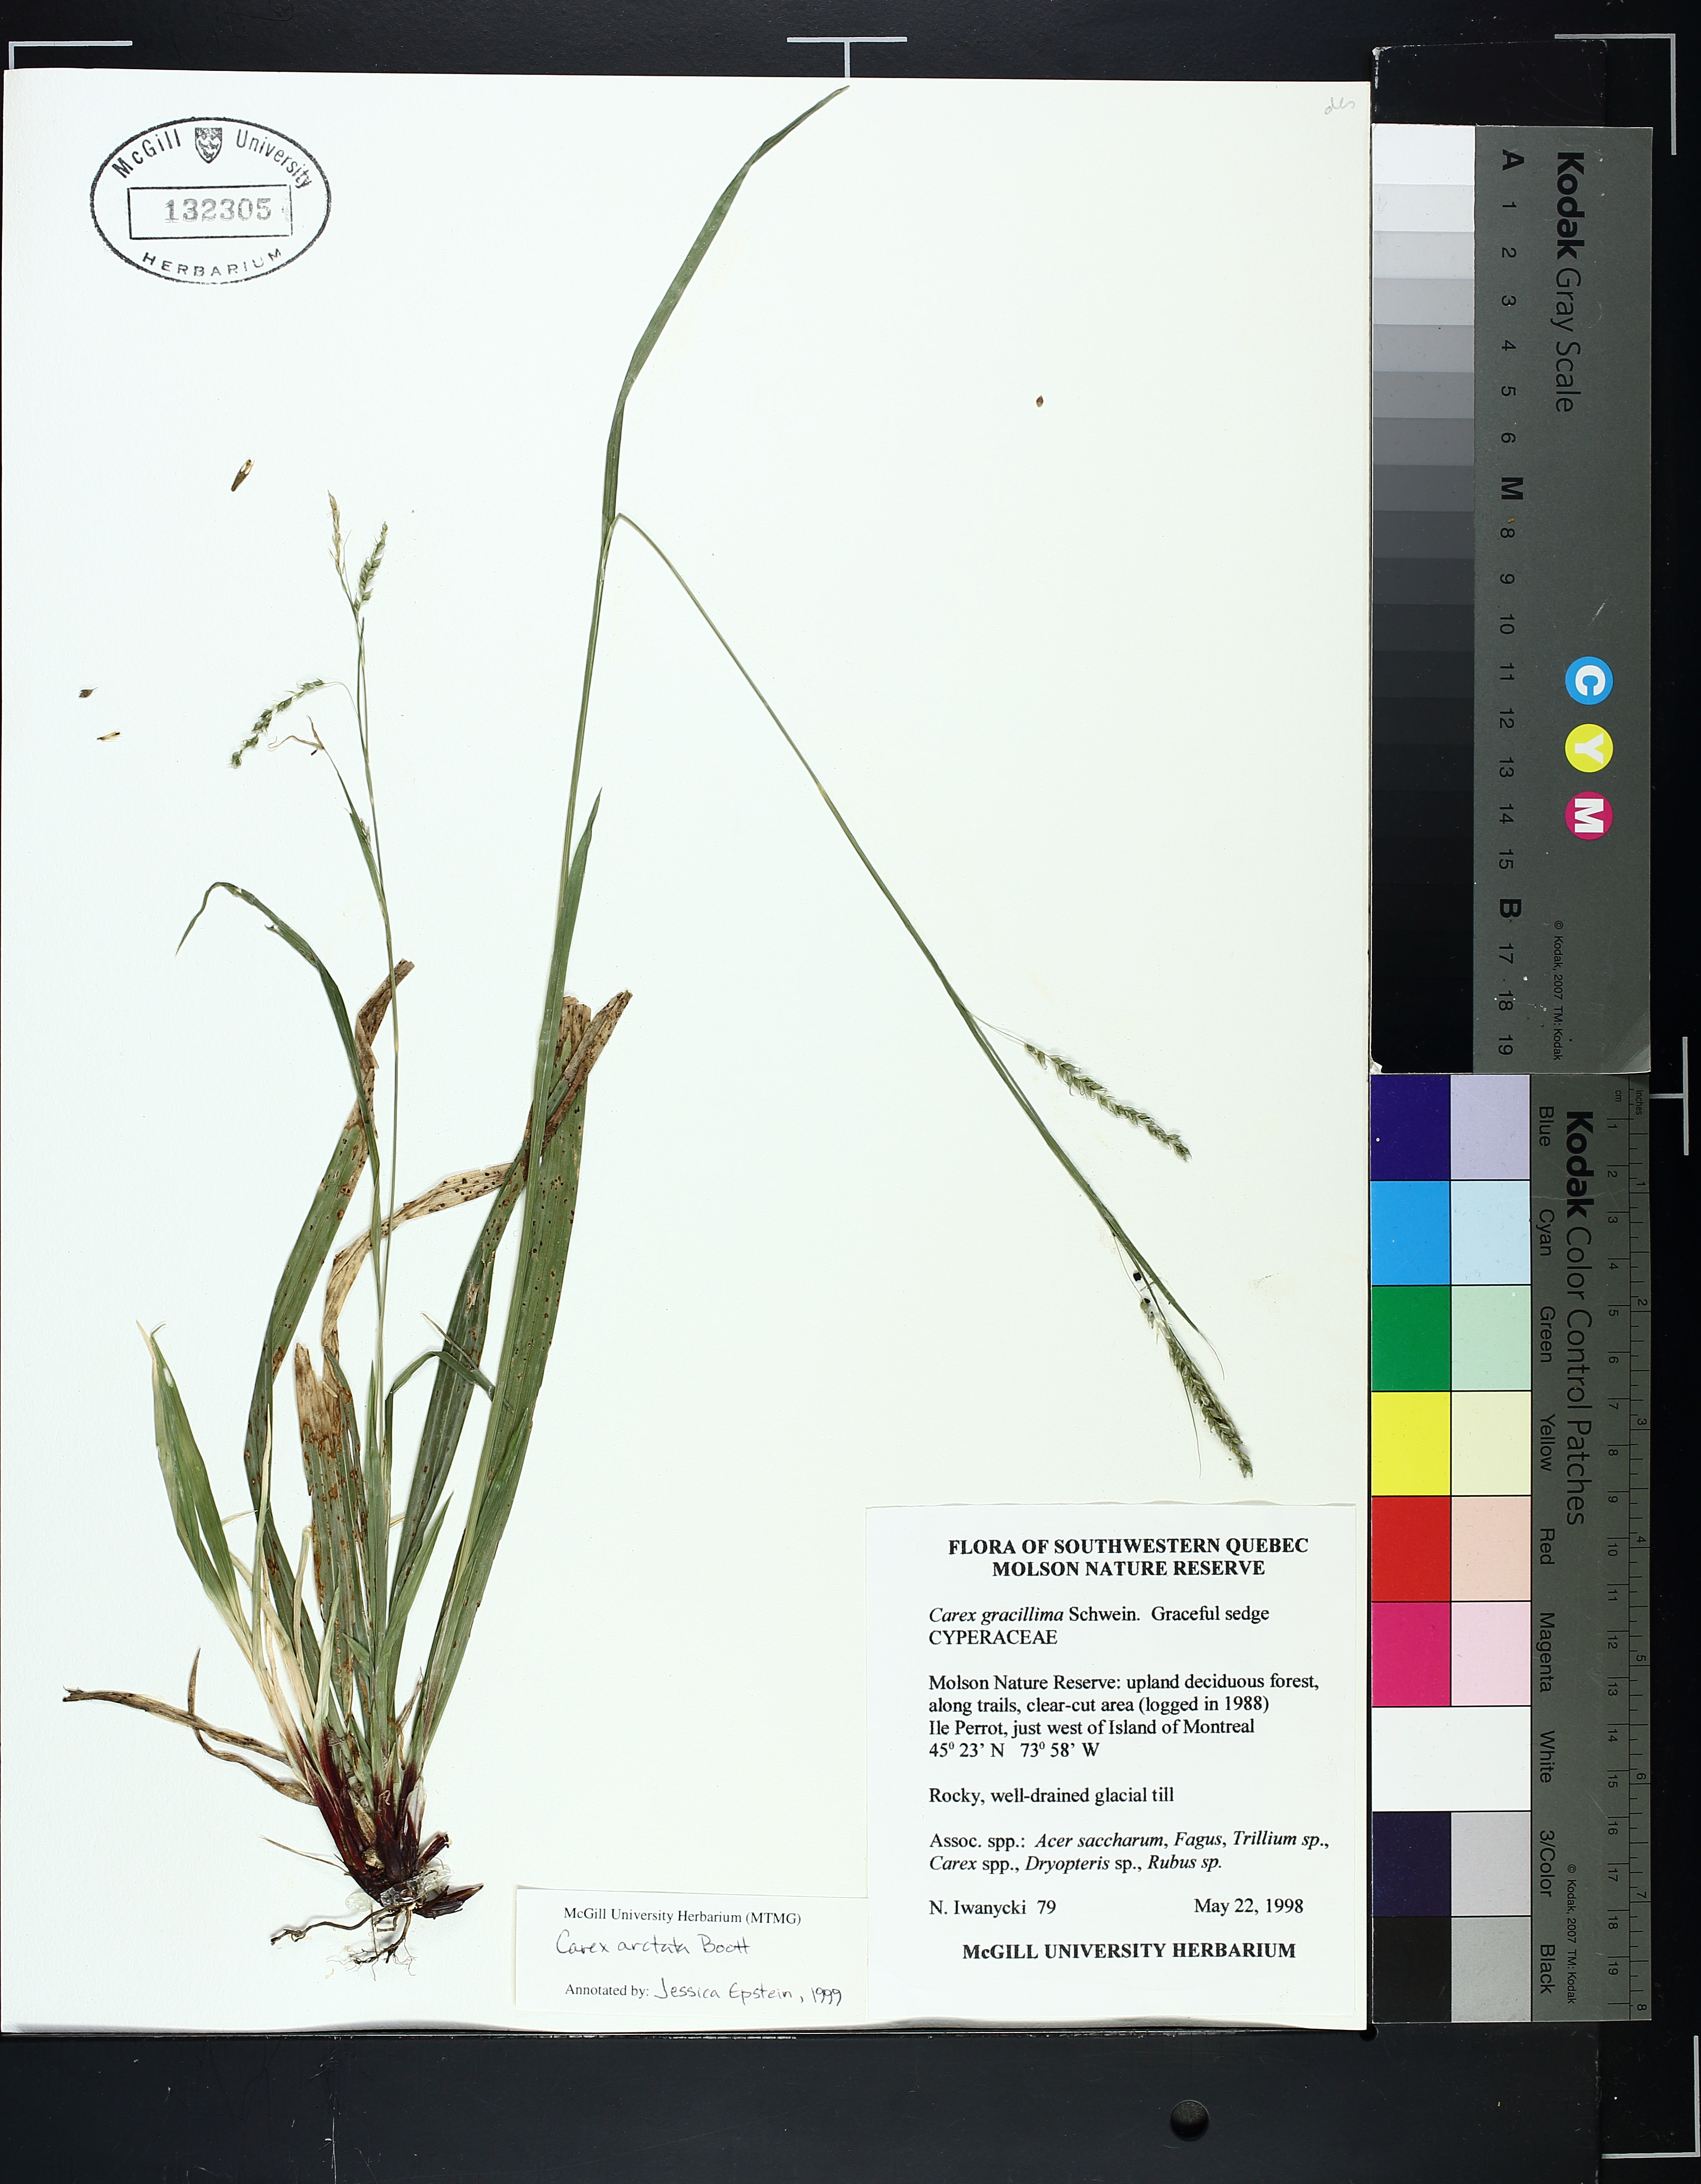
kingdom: Plantae
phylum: Tracheophyta
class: Liliopsida
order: Poales
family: Cyperaceae
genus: Carex
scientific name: Carex arctata
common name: Black sedge
